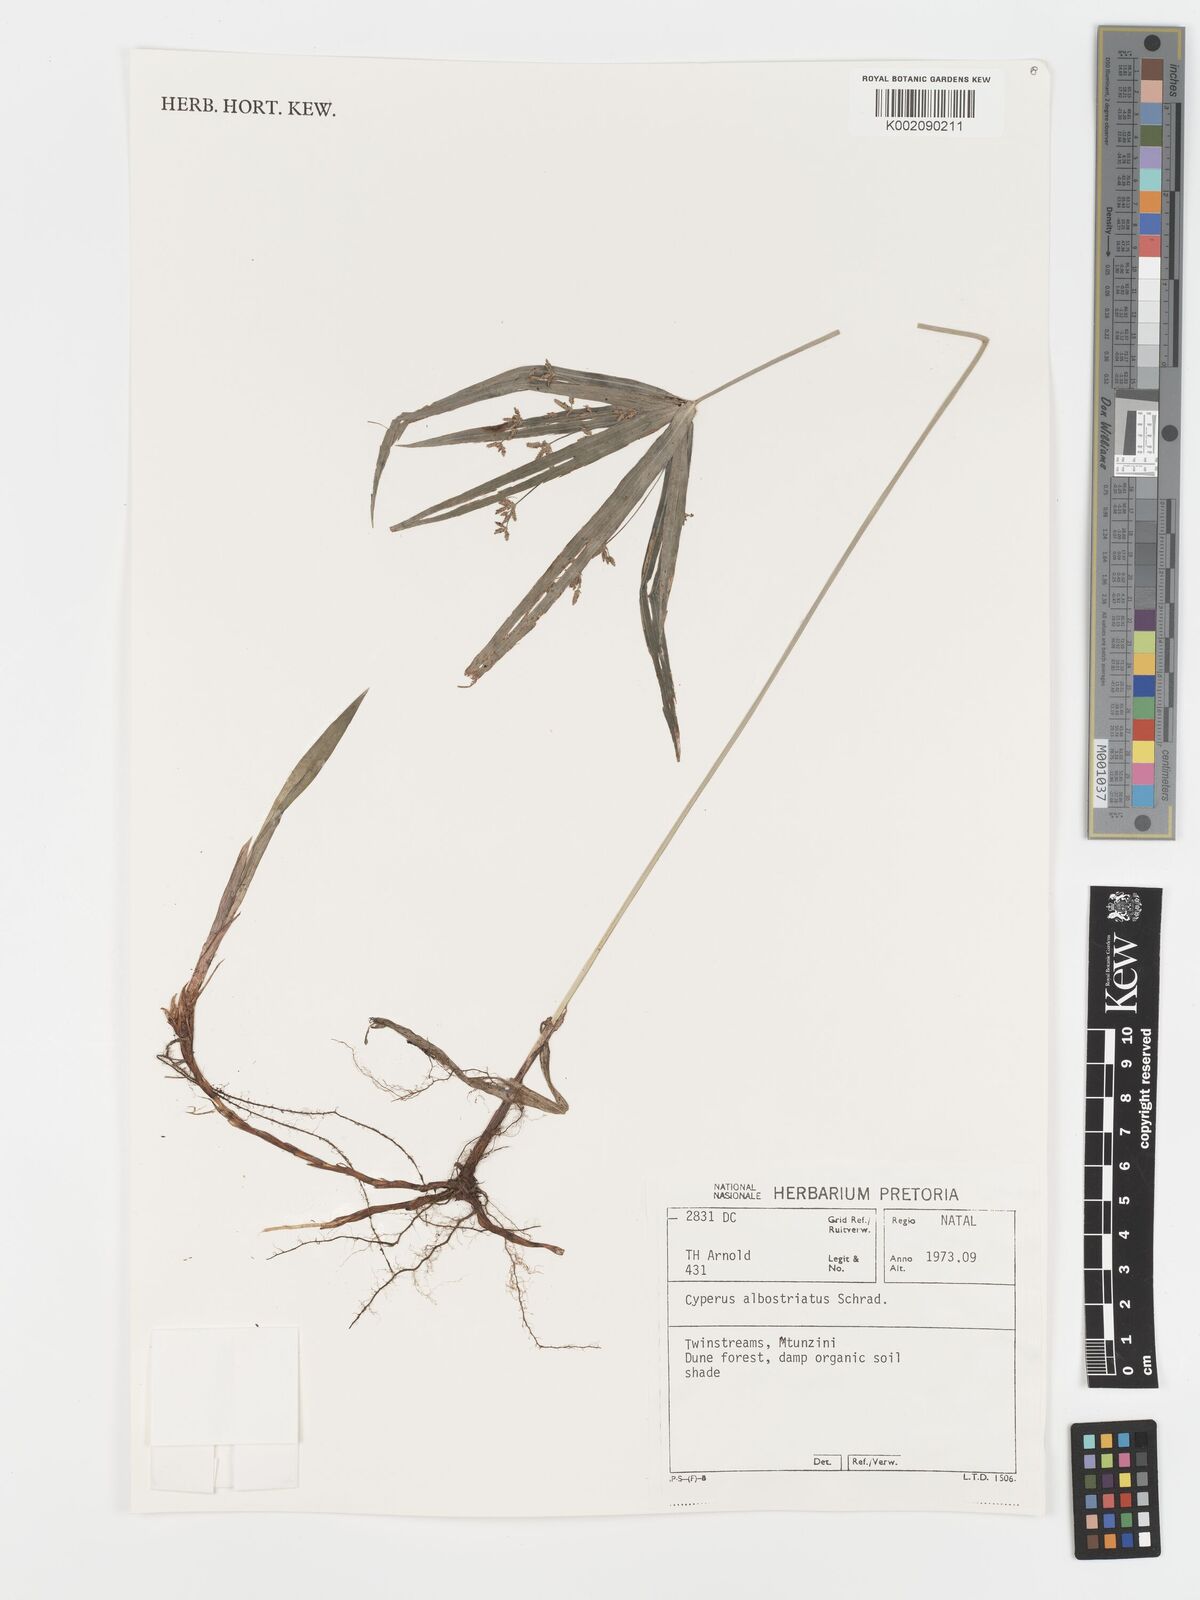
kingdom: Plantae
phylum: Tracheophyta
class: Liliopsida
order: Poales
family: Cyperaceae
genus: Cyperus
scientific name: Cyperus albostriatus
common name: Dwarf umbrella-grass
